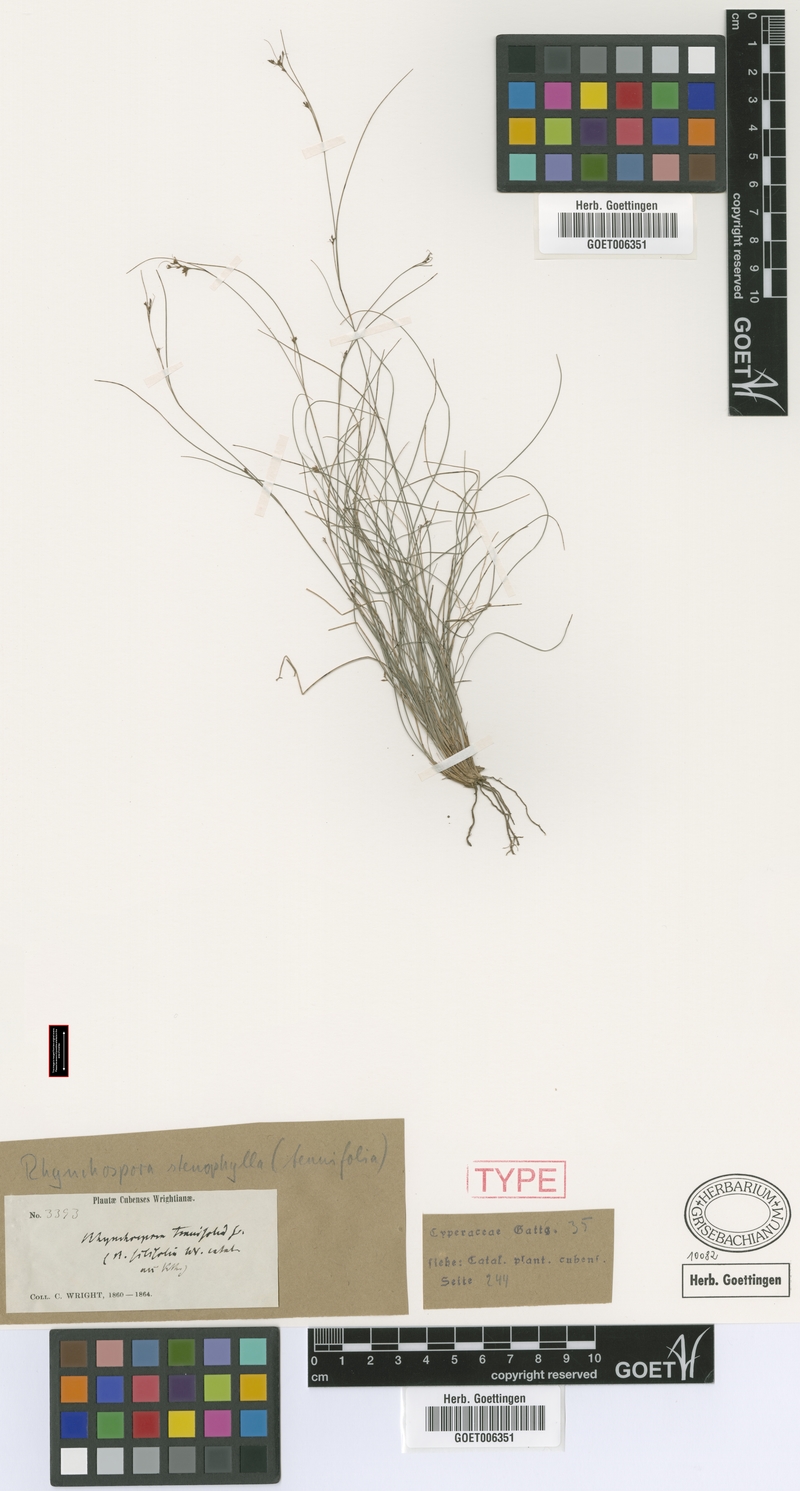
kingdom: Plantae
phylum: Tracheophyta
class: Liliopsida
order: Poales
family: Cyperaceae
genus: Rhynchospora
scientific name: Rhynchospora tenuifolia
